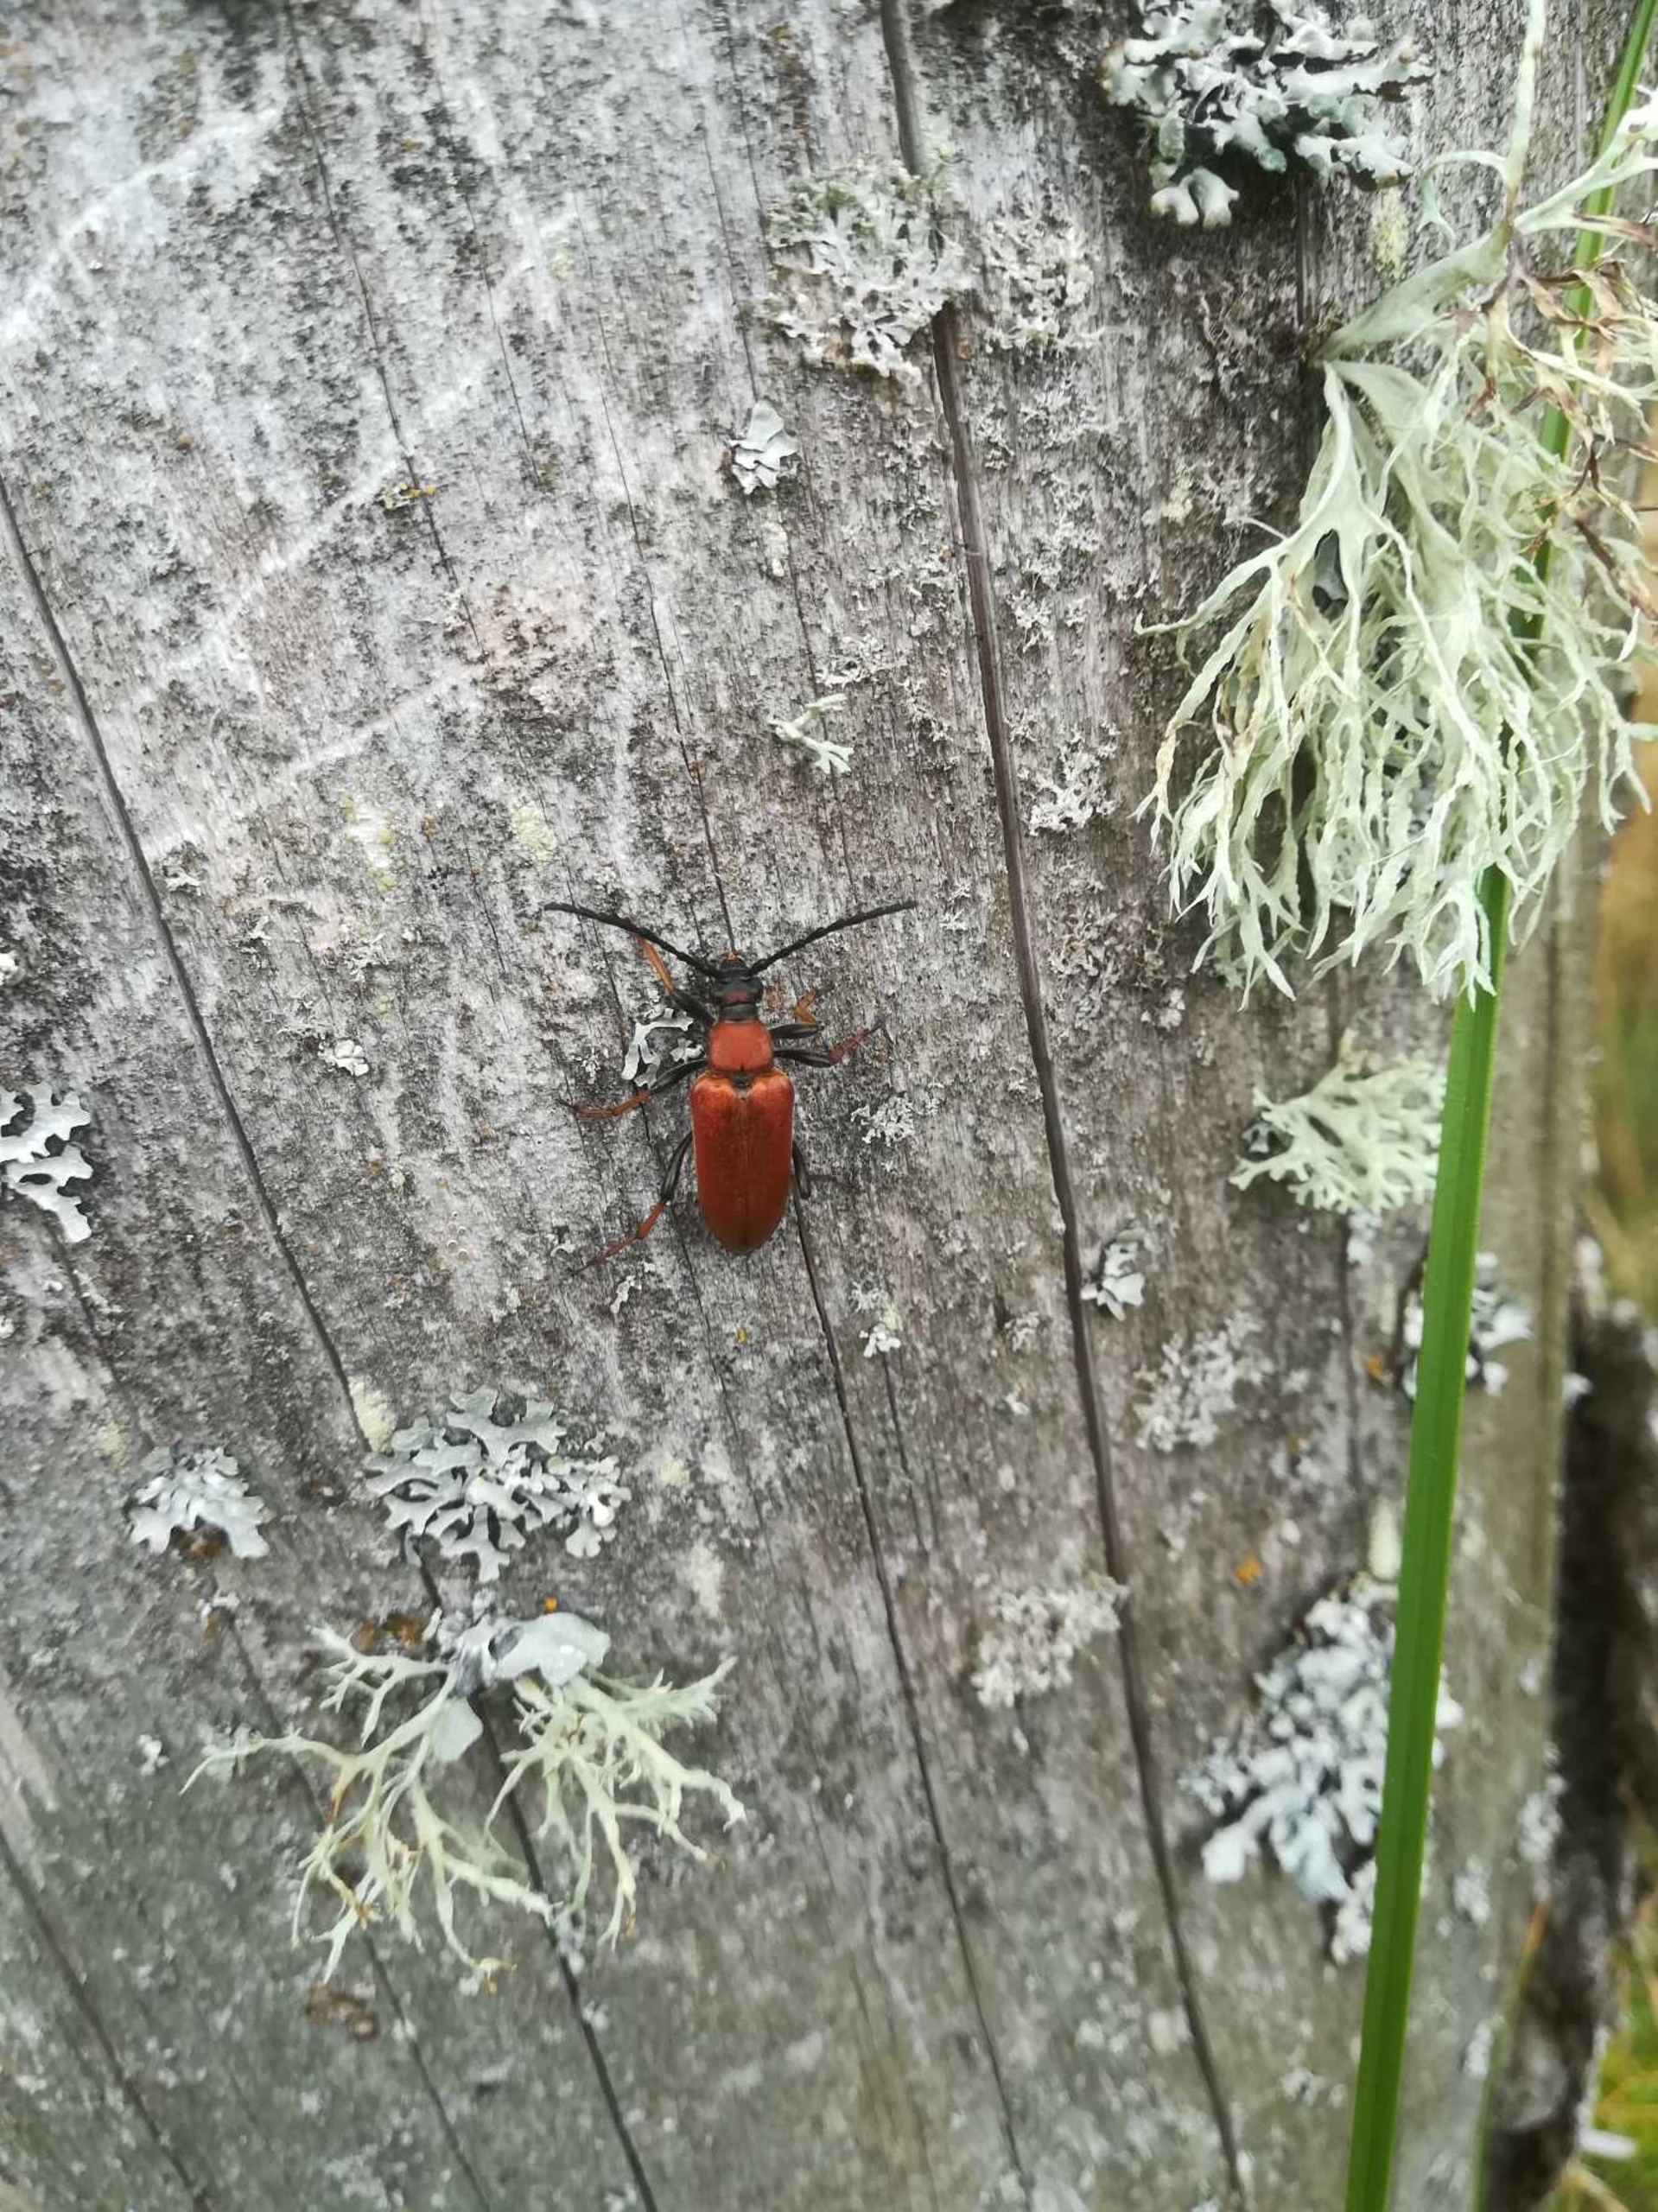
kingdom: Animalia
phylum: Arthropoda
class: Insecta
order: Coleoptera
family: Cerambycidae
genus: Stictoleptura
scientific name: Stictoleptura rubra
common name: Rød blomsterbuk
